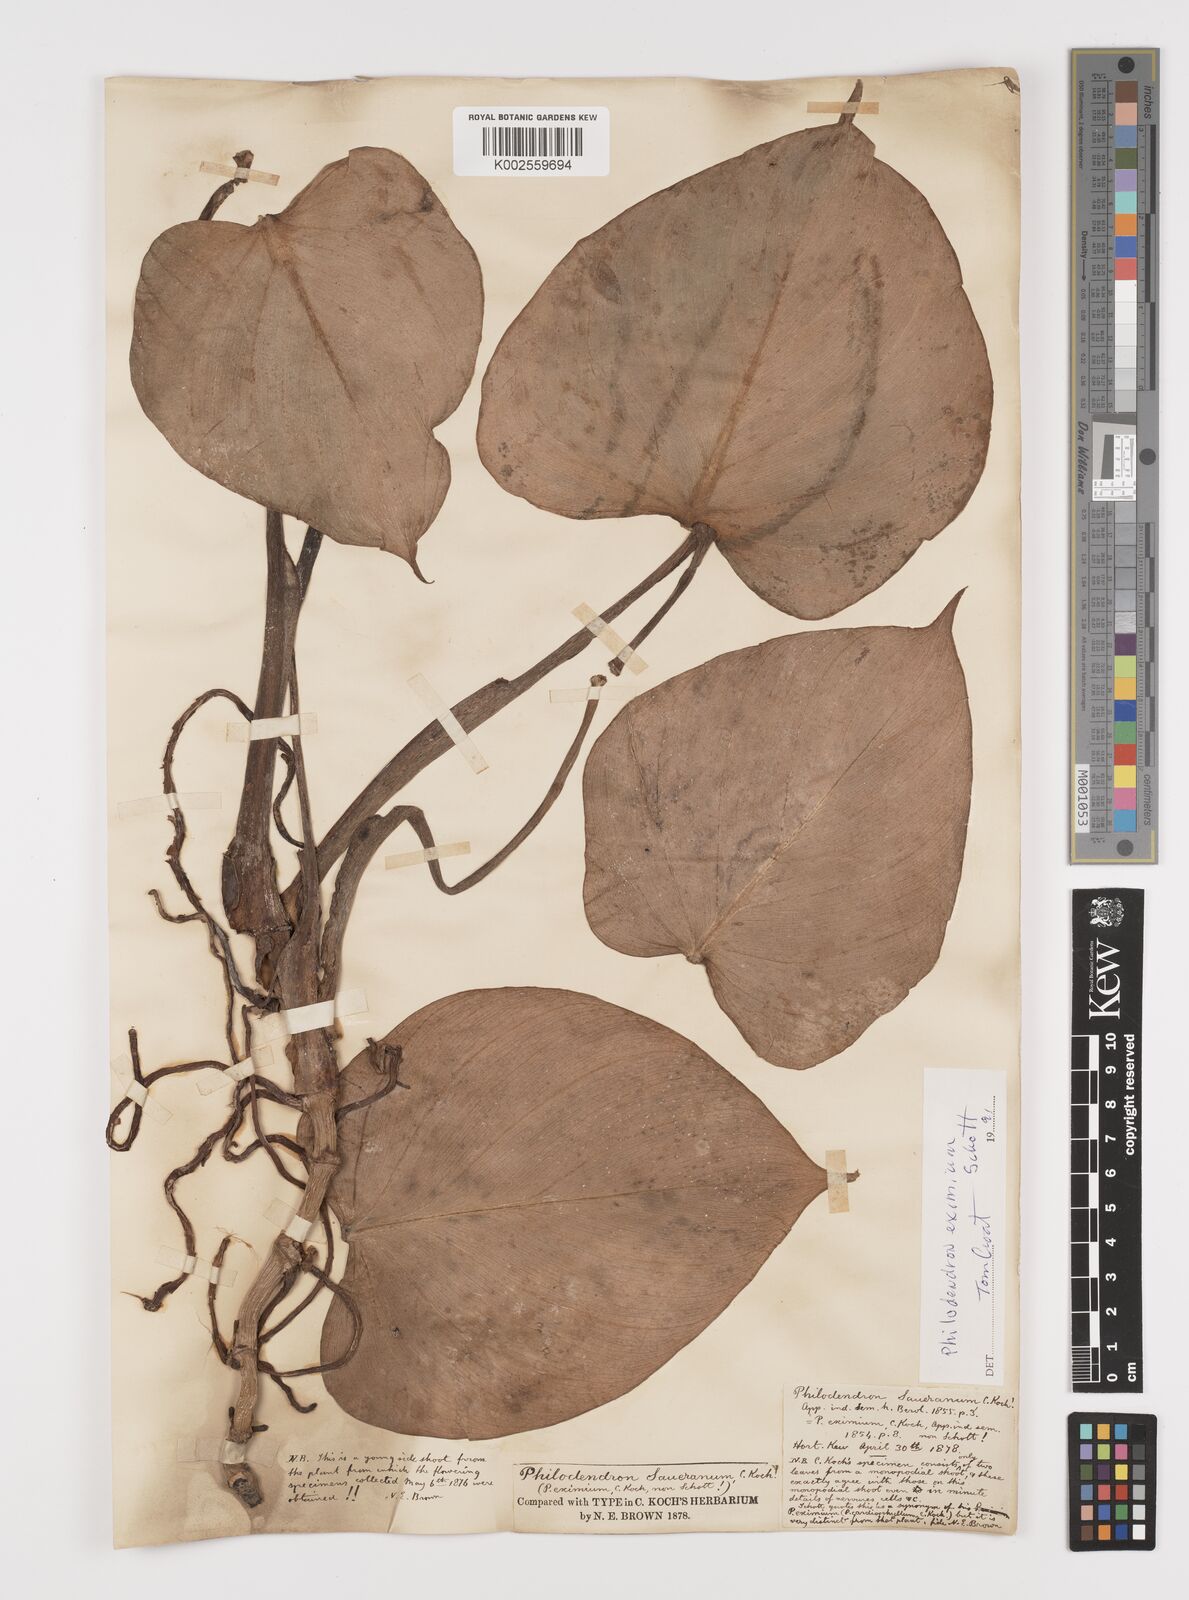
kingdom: Plantae
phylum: Tracheophyta
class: Liliopsida
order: Alismatales
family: Araceae
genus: Philodendron
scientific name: Philodendron eximium
